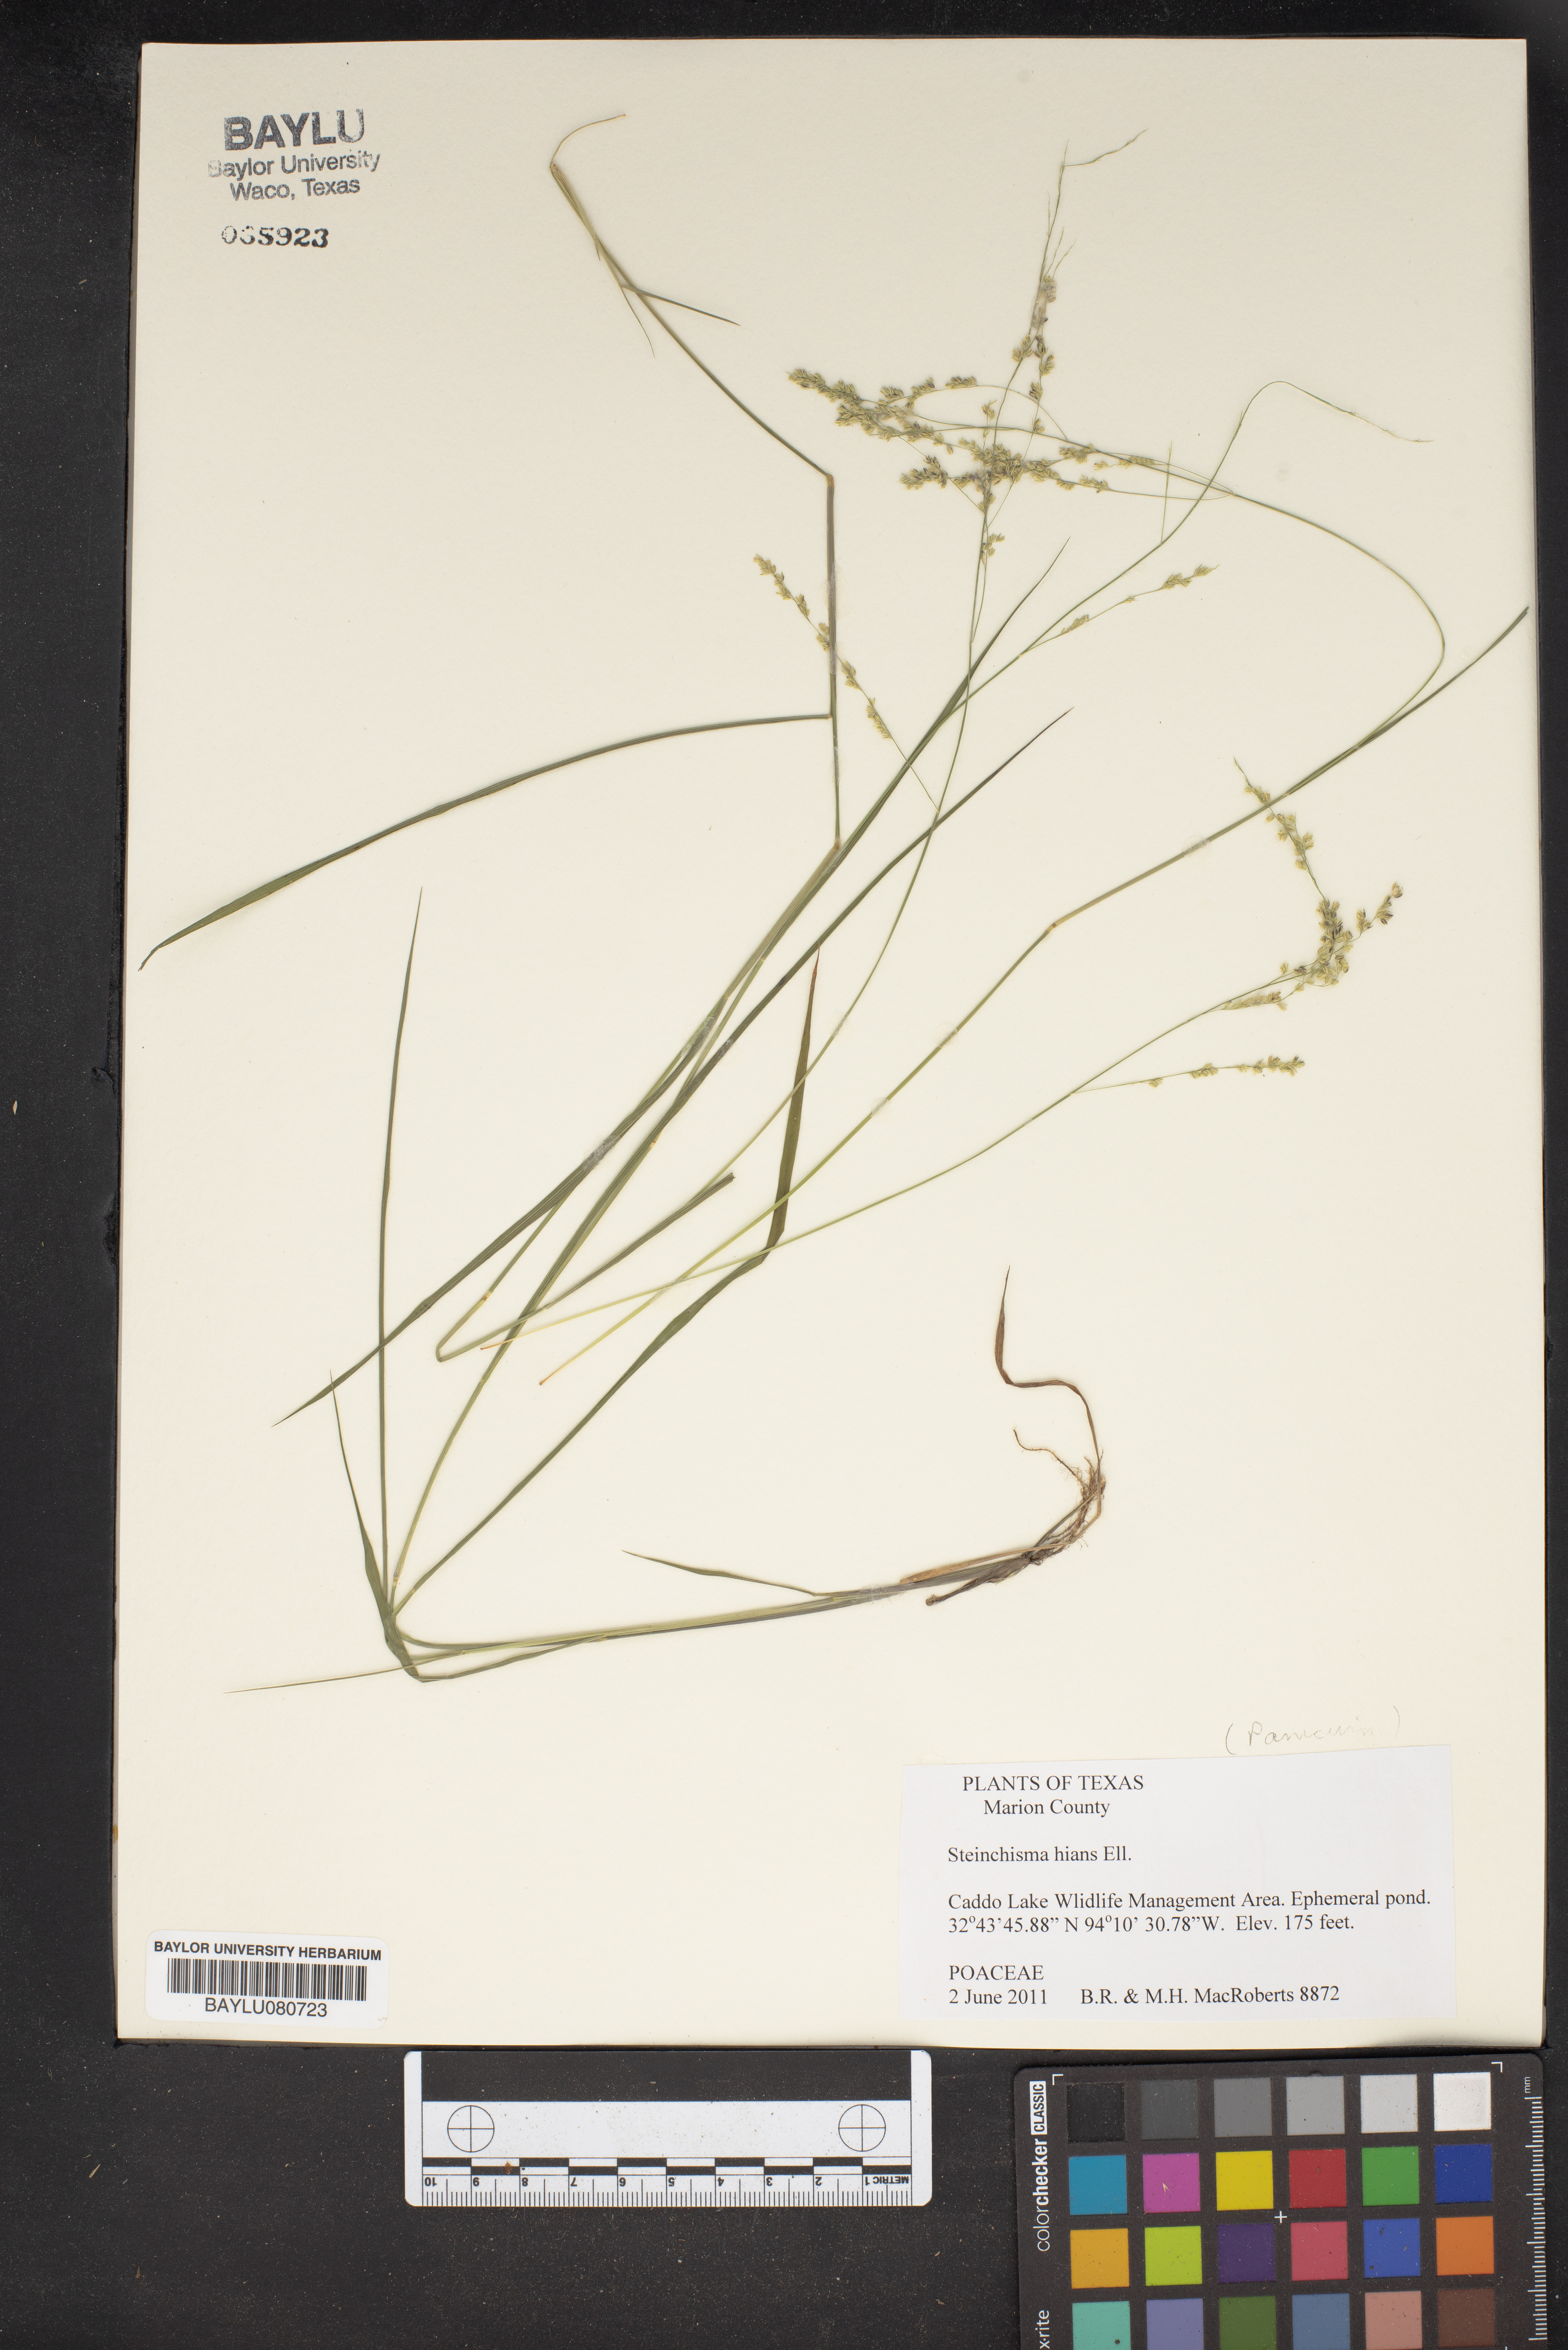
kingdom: Plantae
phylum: Tracheophyta
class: Liliopsida
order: Poales
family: Poaceae
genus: Steinchisma
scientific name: Steinchisma hians
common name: Gaping panic grass
